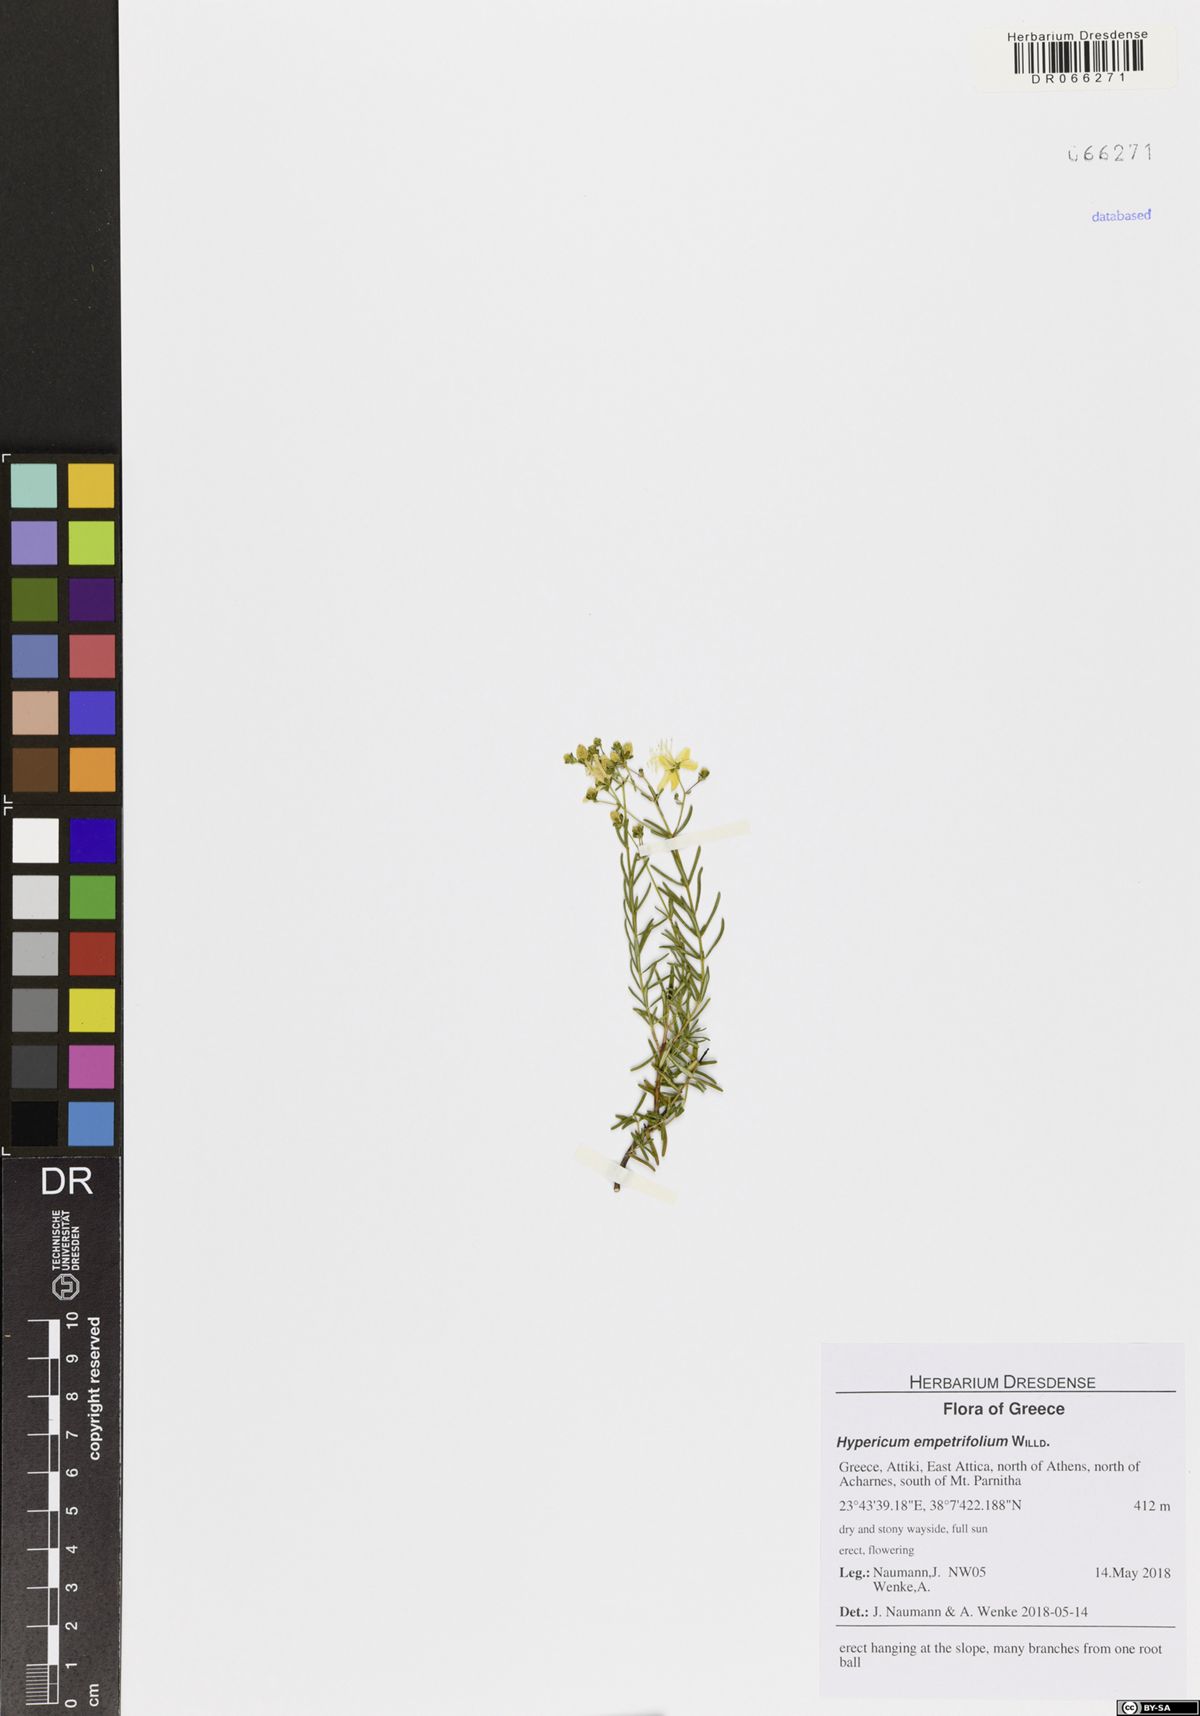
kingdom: Plantae
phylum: Tracheophyta
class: Magnoliopsida
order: Malpighiales
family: Hypericaceae
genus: Hypericum
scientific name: Hypericum empetrifolium
